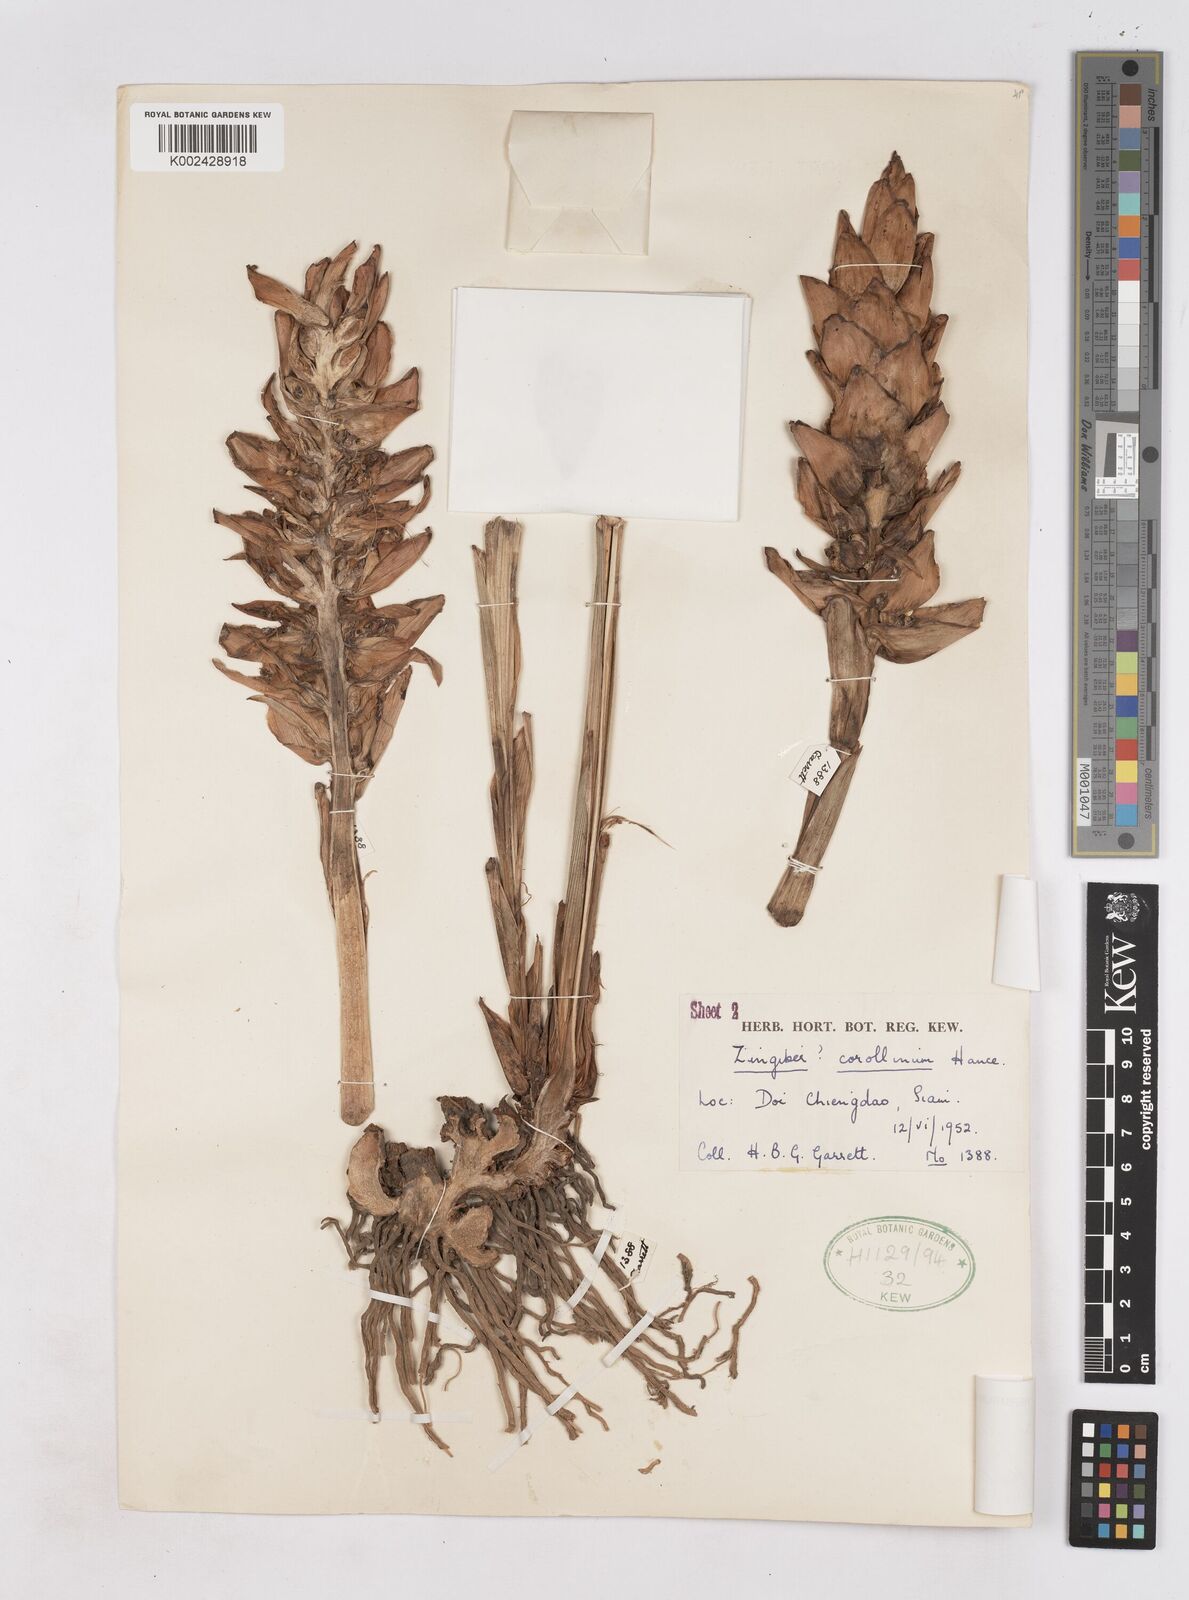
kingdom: Plantae
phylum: Tracheophyta
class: Liliopsida
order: Zingiberales
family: Zingiberaceae
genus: Zingiber
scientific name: Zingiber laoticum
